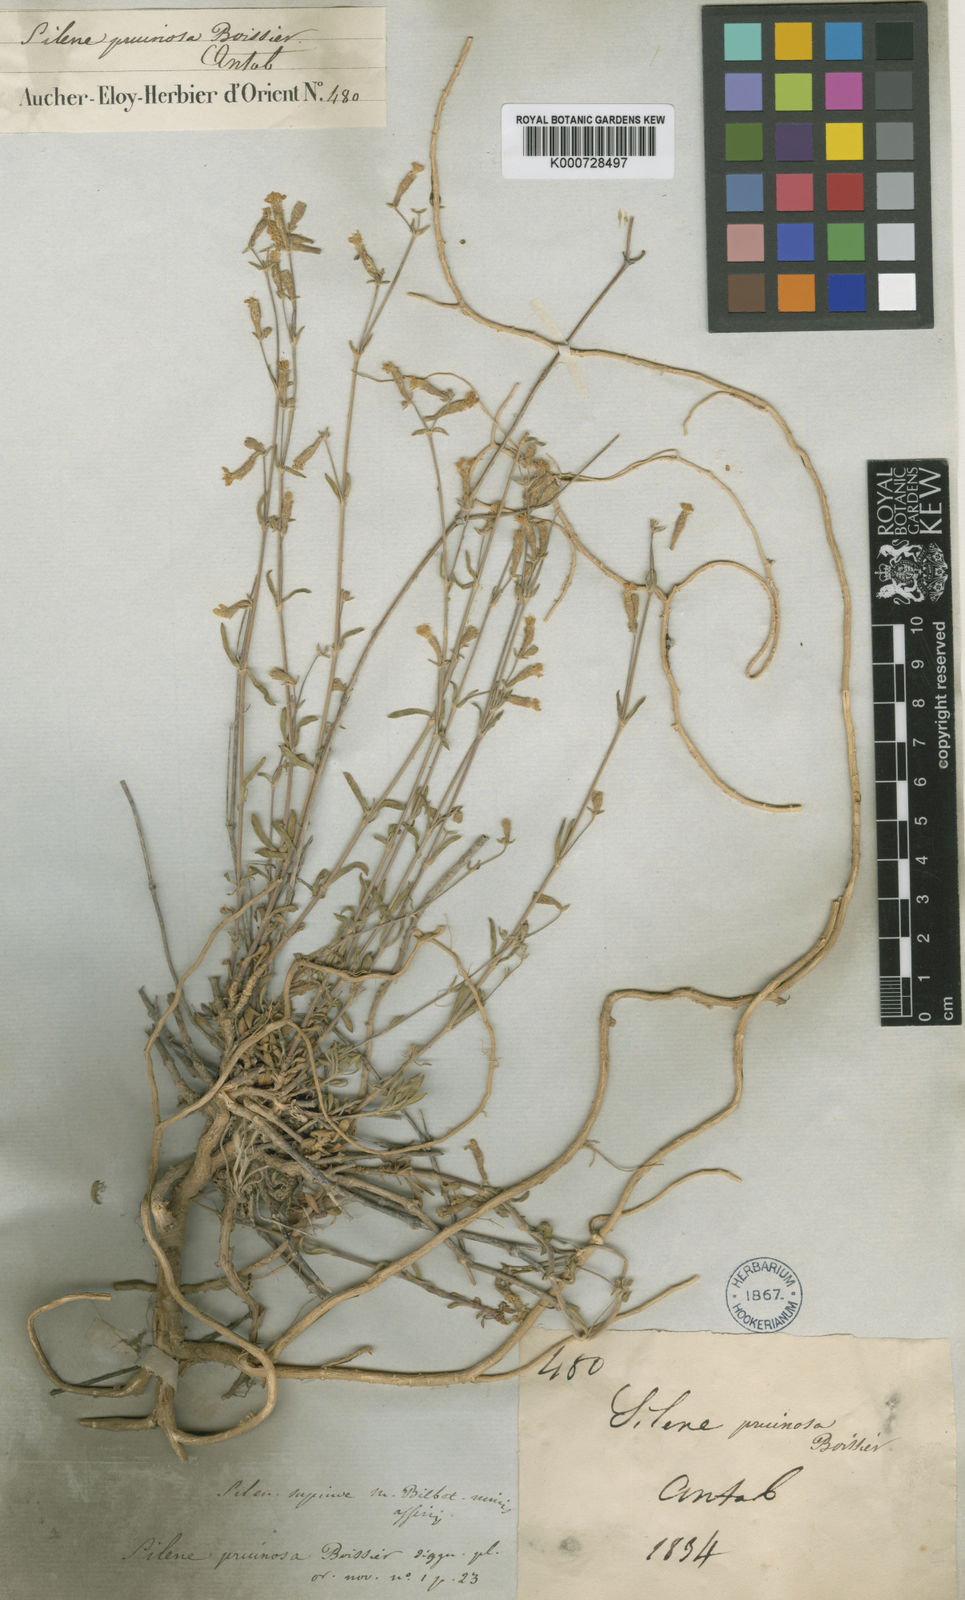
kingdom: Plantae
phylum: Tracheophyta
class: Magnoliopsida
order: Caryophyllales
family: Caryophyllaceae
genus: Silene
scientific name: Silene argentea
